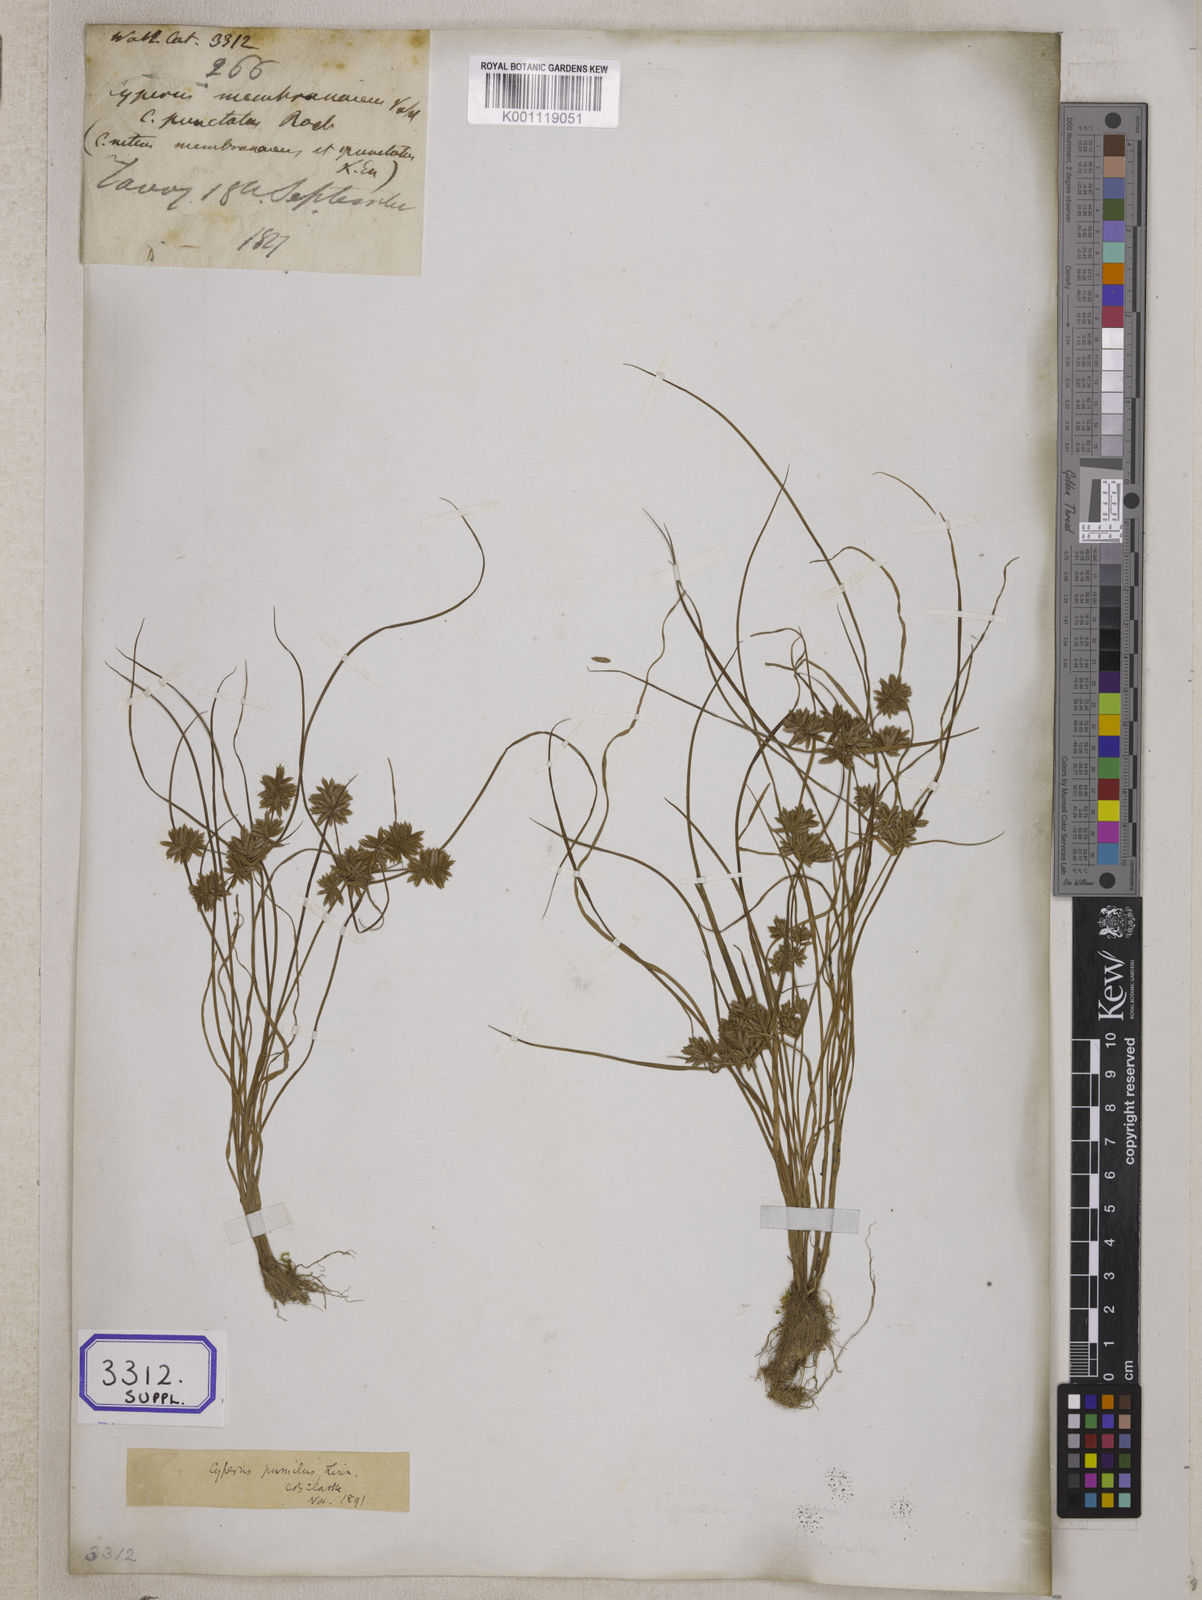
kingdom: Plantae
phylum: Tracheophyta
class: Liliopsida
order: Poales
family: Cyperaceae
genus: Cyperus
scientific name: Cyperus
